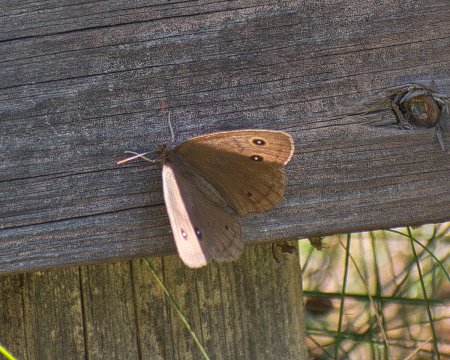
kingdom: Animalia
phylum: Arthropoda
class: Insecta
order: Lepidoptera
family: Nymphalidae
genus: Cercyonis
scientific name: Cercyonis pegala
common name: Common Wood-Nymph
